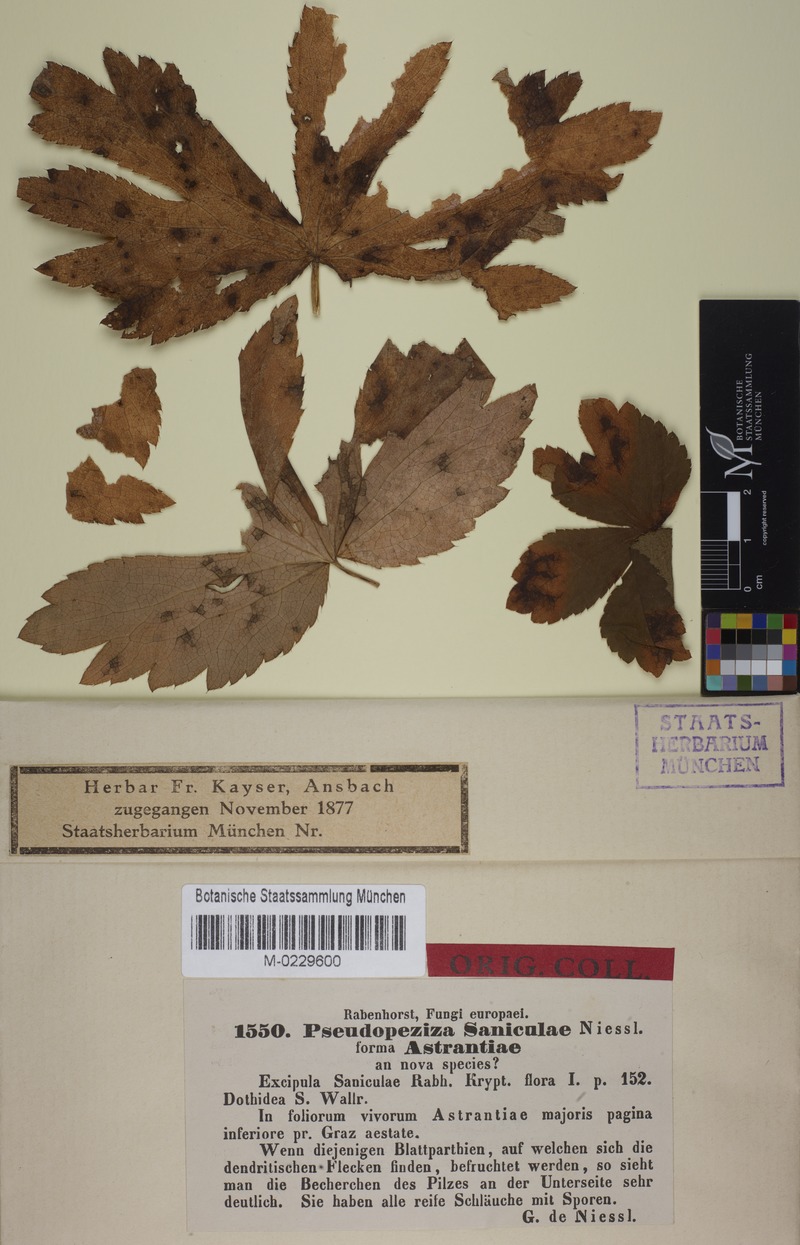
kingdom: Fungi
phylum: Ascomycota
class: Leotiomycetes
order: Helotiales
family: Drepanopezizaceae
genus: Leptotrochila
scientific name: Leptotrochila astrantiae
